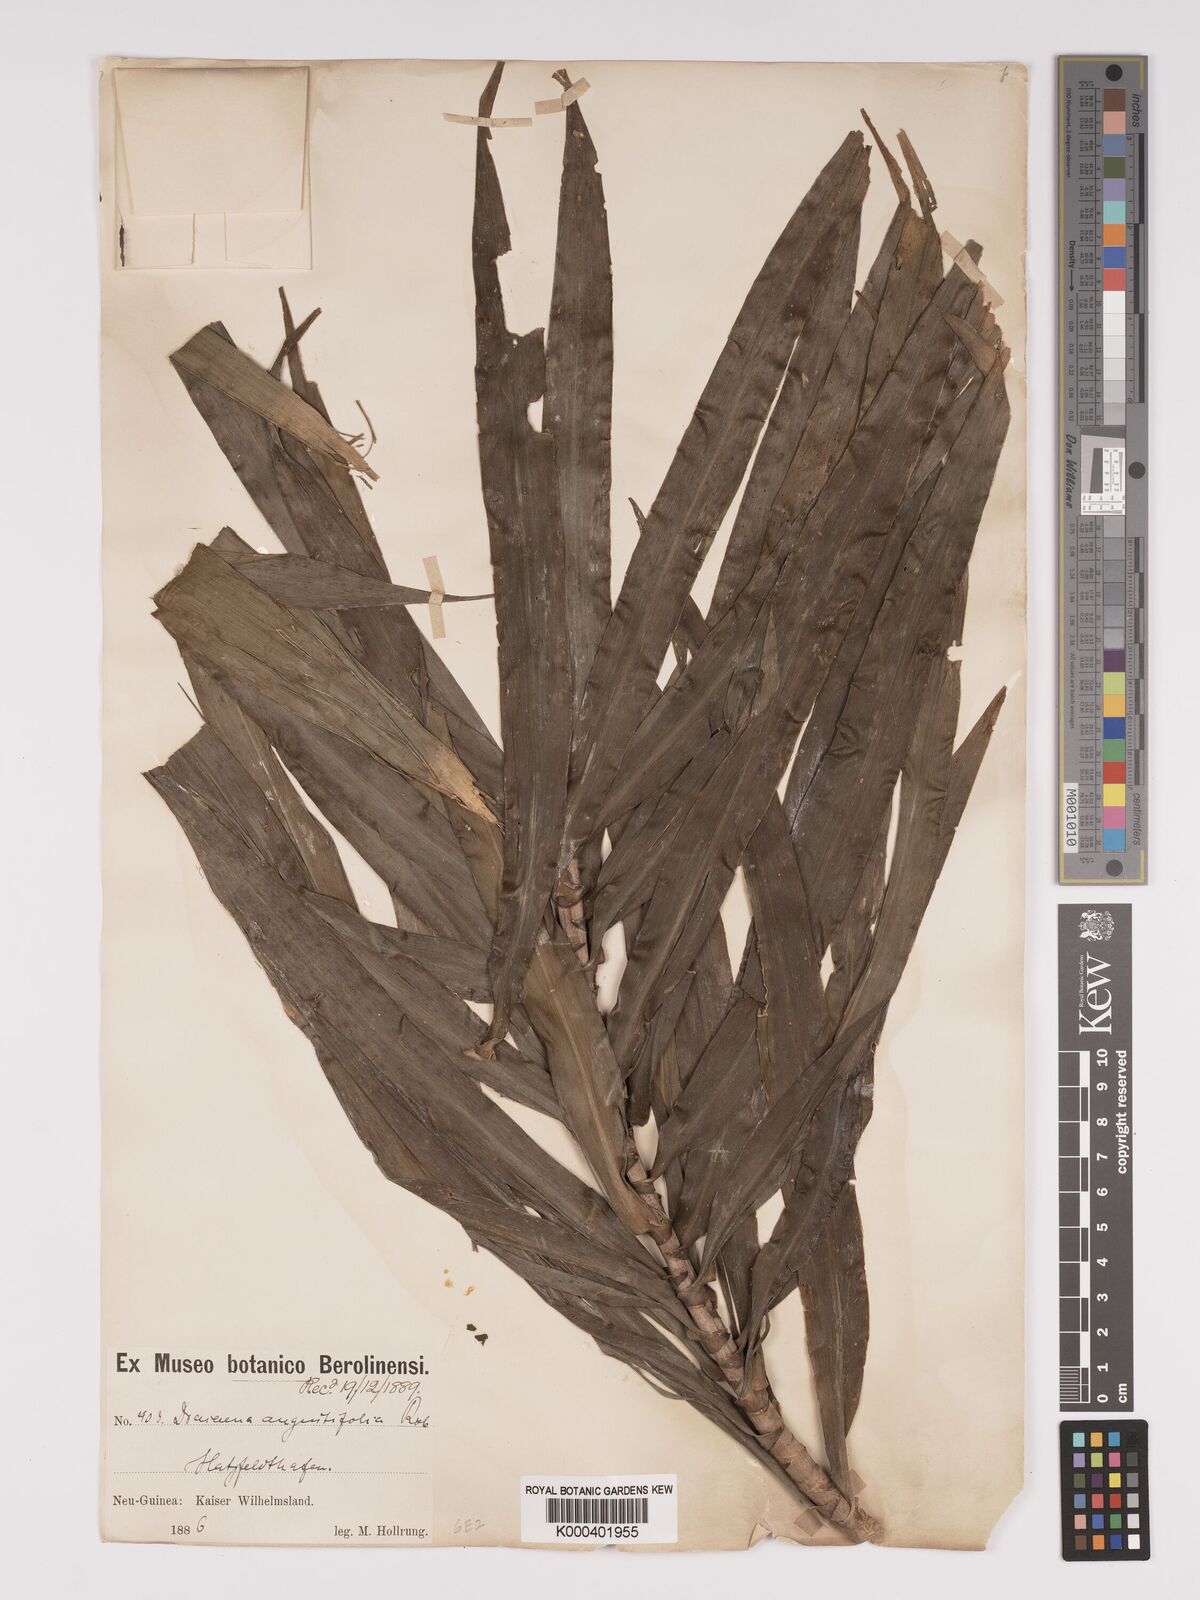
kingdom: Plantae
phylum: Tracheophyta
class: Liliopsida
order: Asparagales
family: Asparagaceae
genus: Dracaena
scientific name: Dracaena angustifolia
